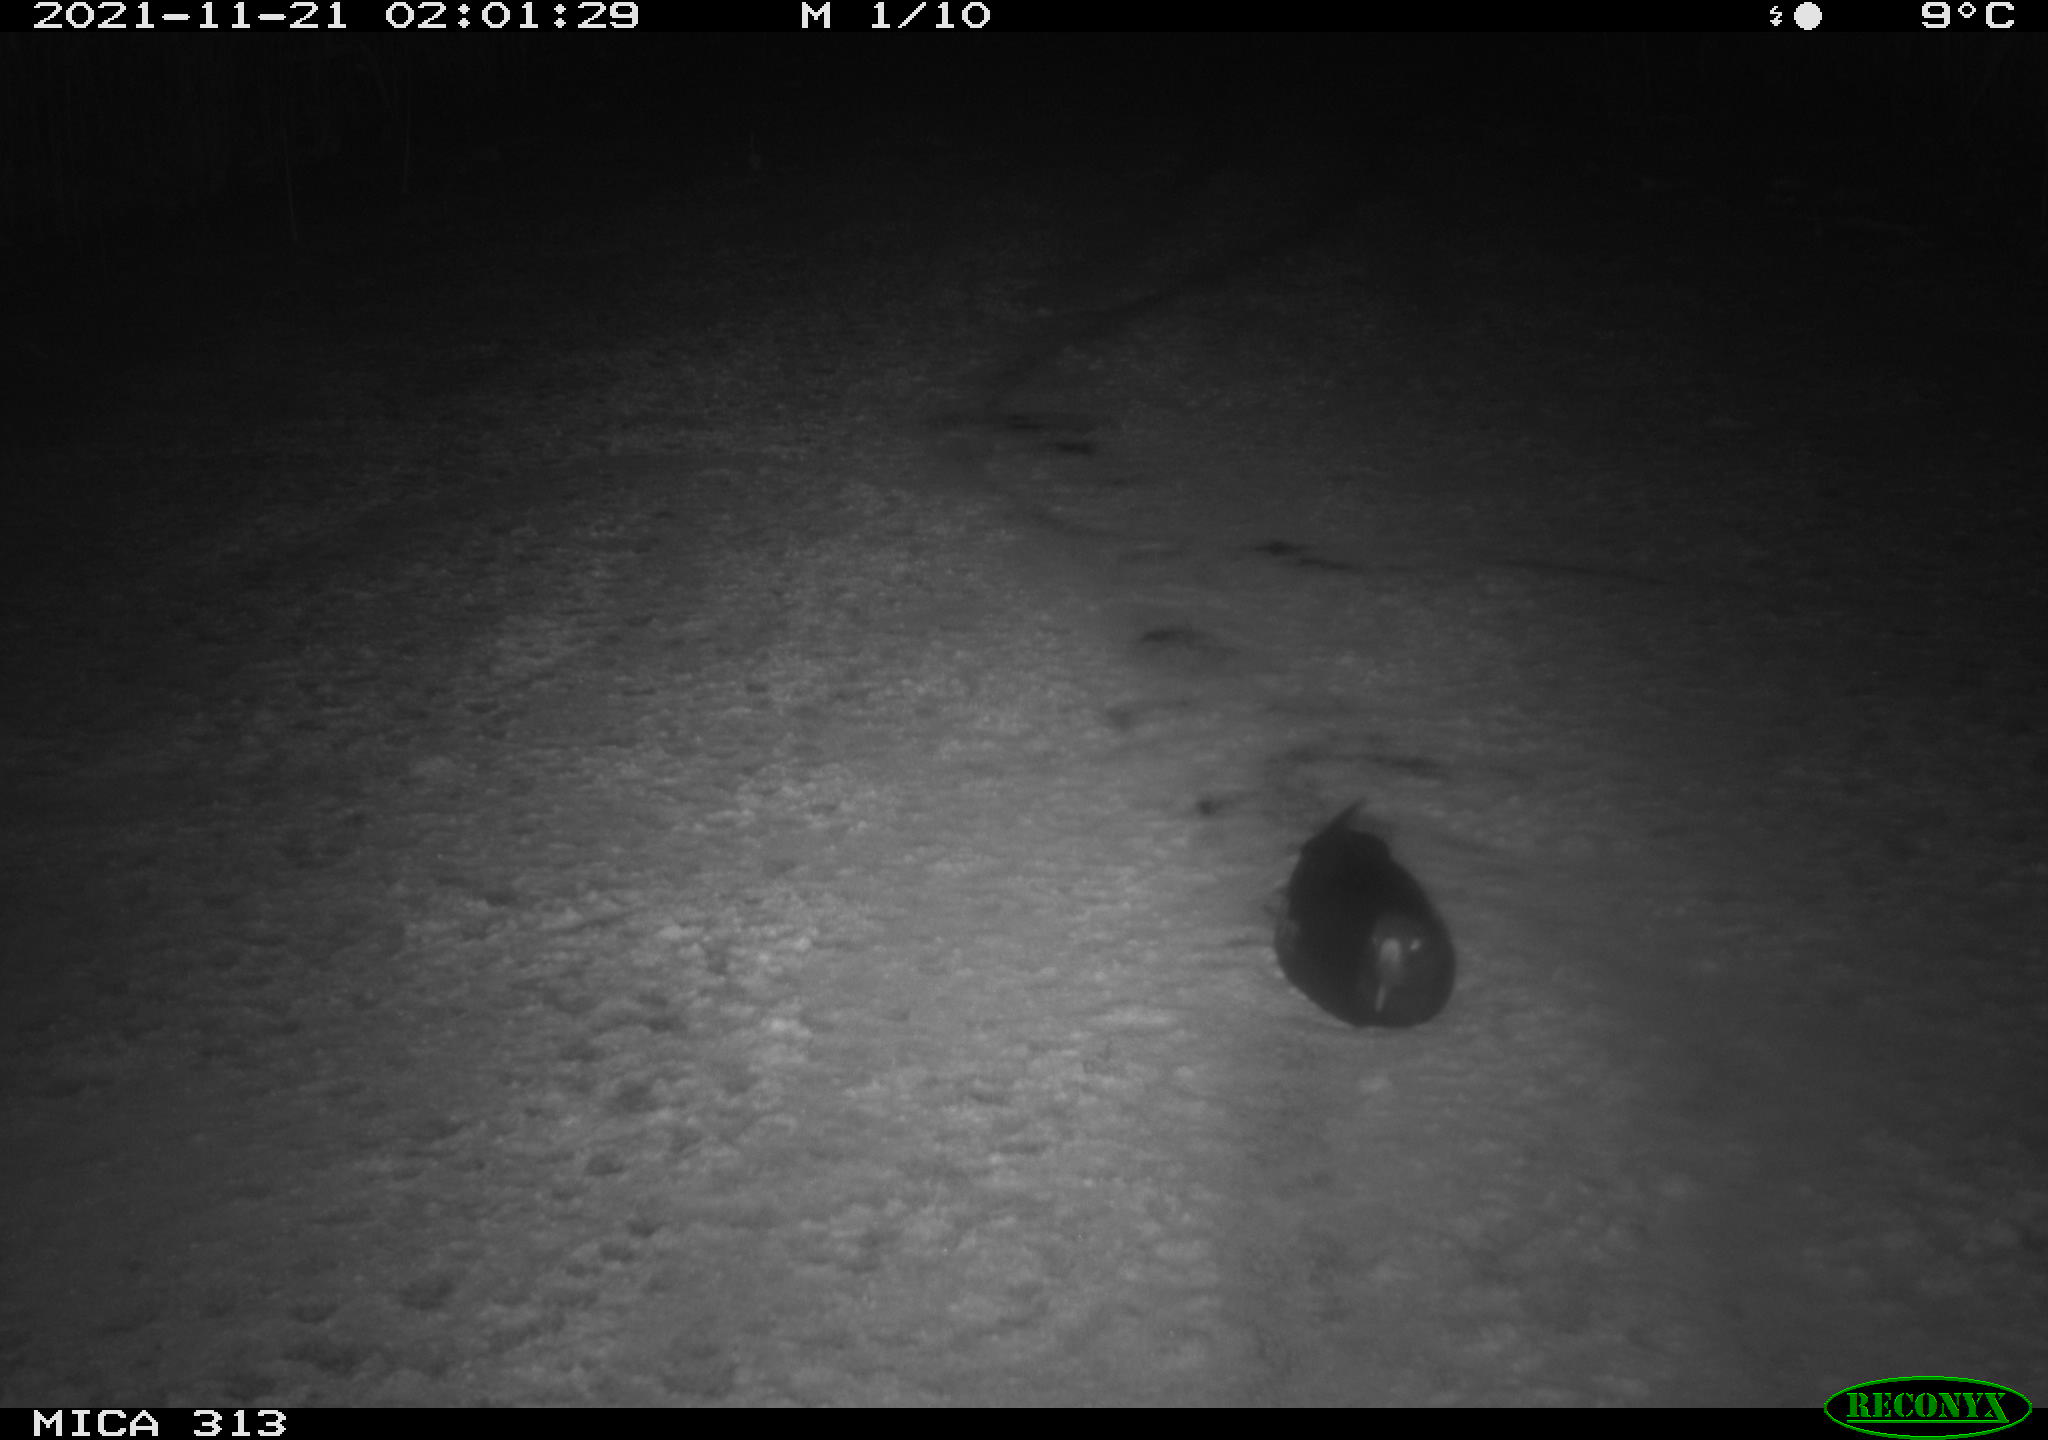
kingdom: Animalia
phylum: Chordata
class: Aves
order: Gruiformes
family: Rallidae
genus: Gallinula
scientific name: Gallinula chloropus
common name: Common moorhen
